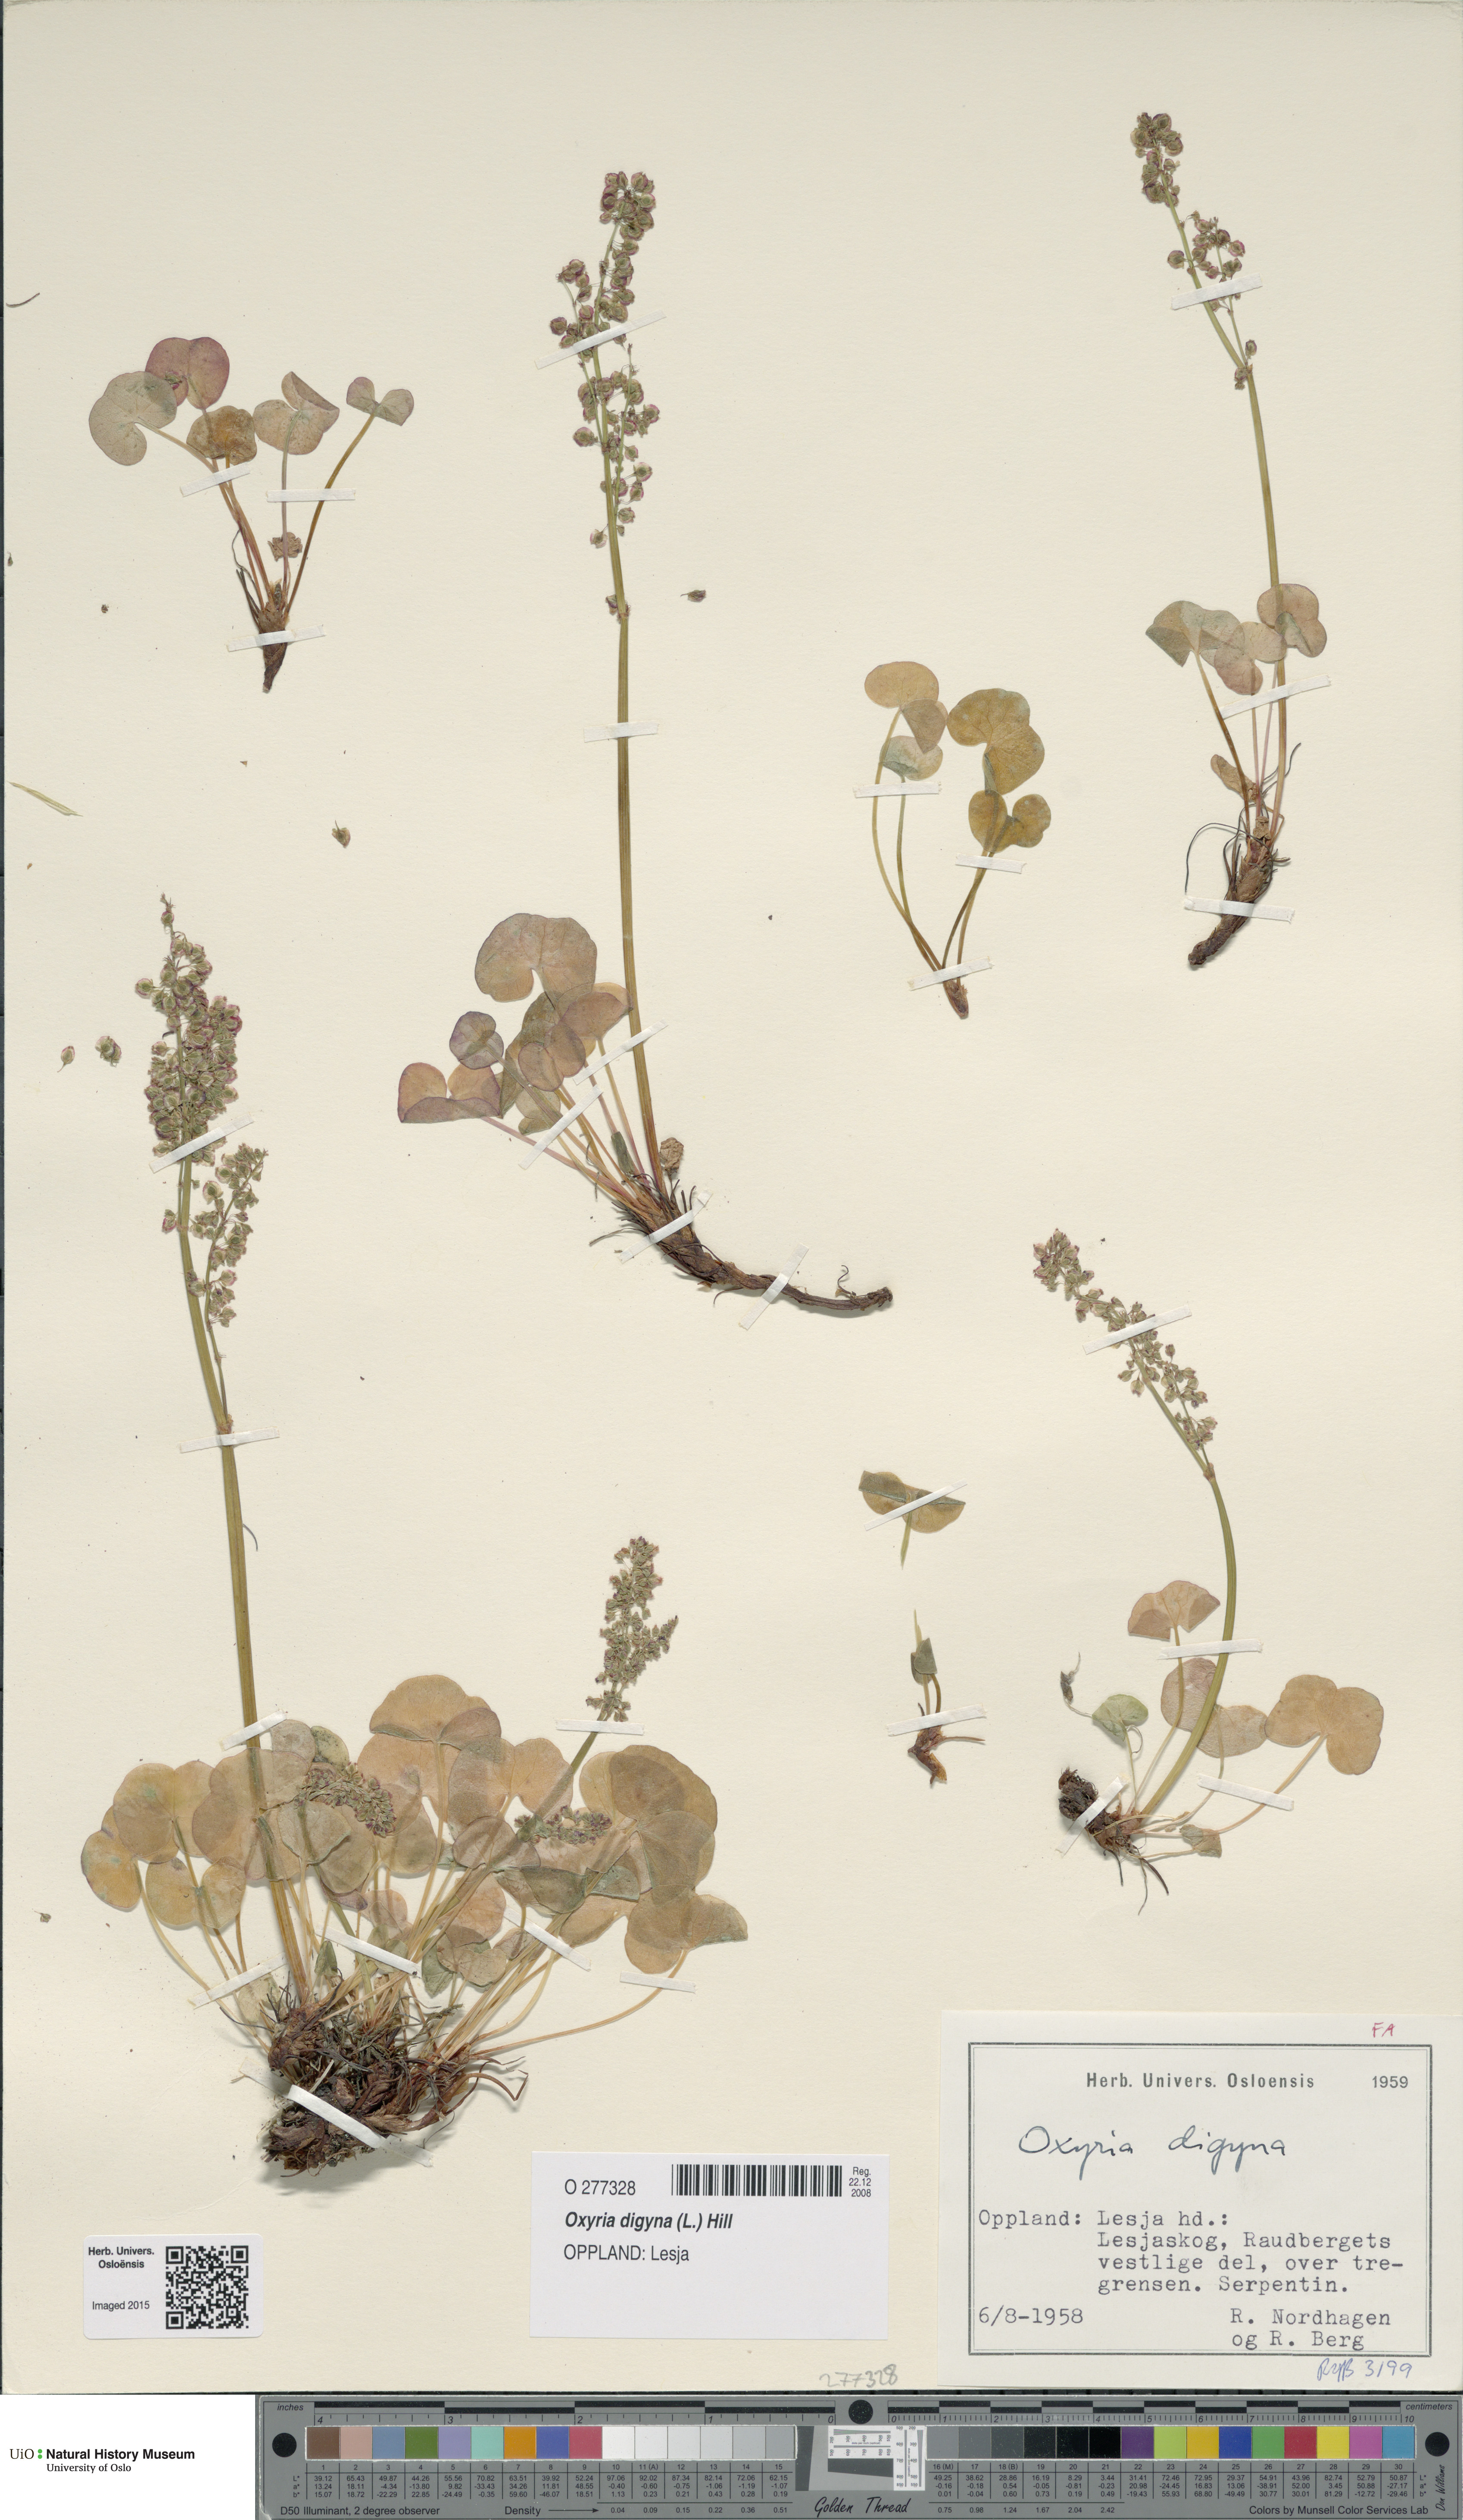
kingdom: Plantae
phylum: Tracheophyta
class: Magnoliopsida
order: Caryophyllales
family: Polygonaceae
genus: Oxyria
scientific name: Oxyria digyna
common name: Alpine mountain-sorrel
